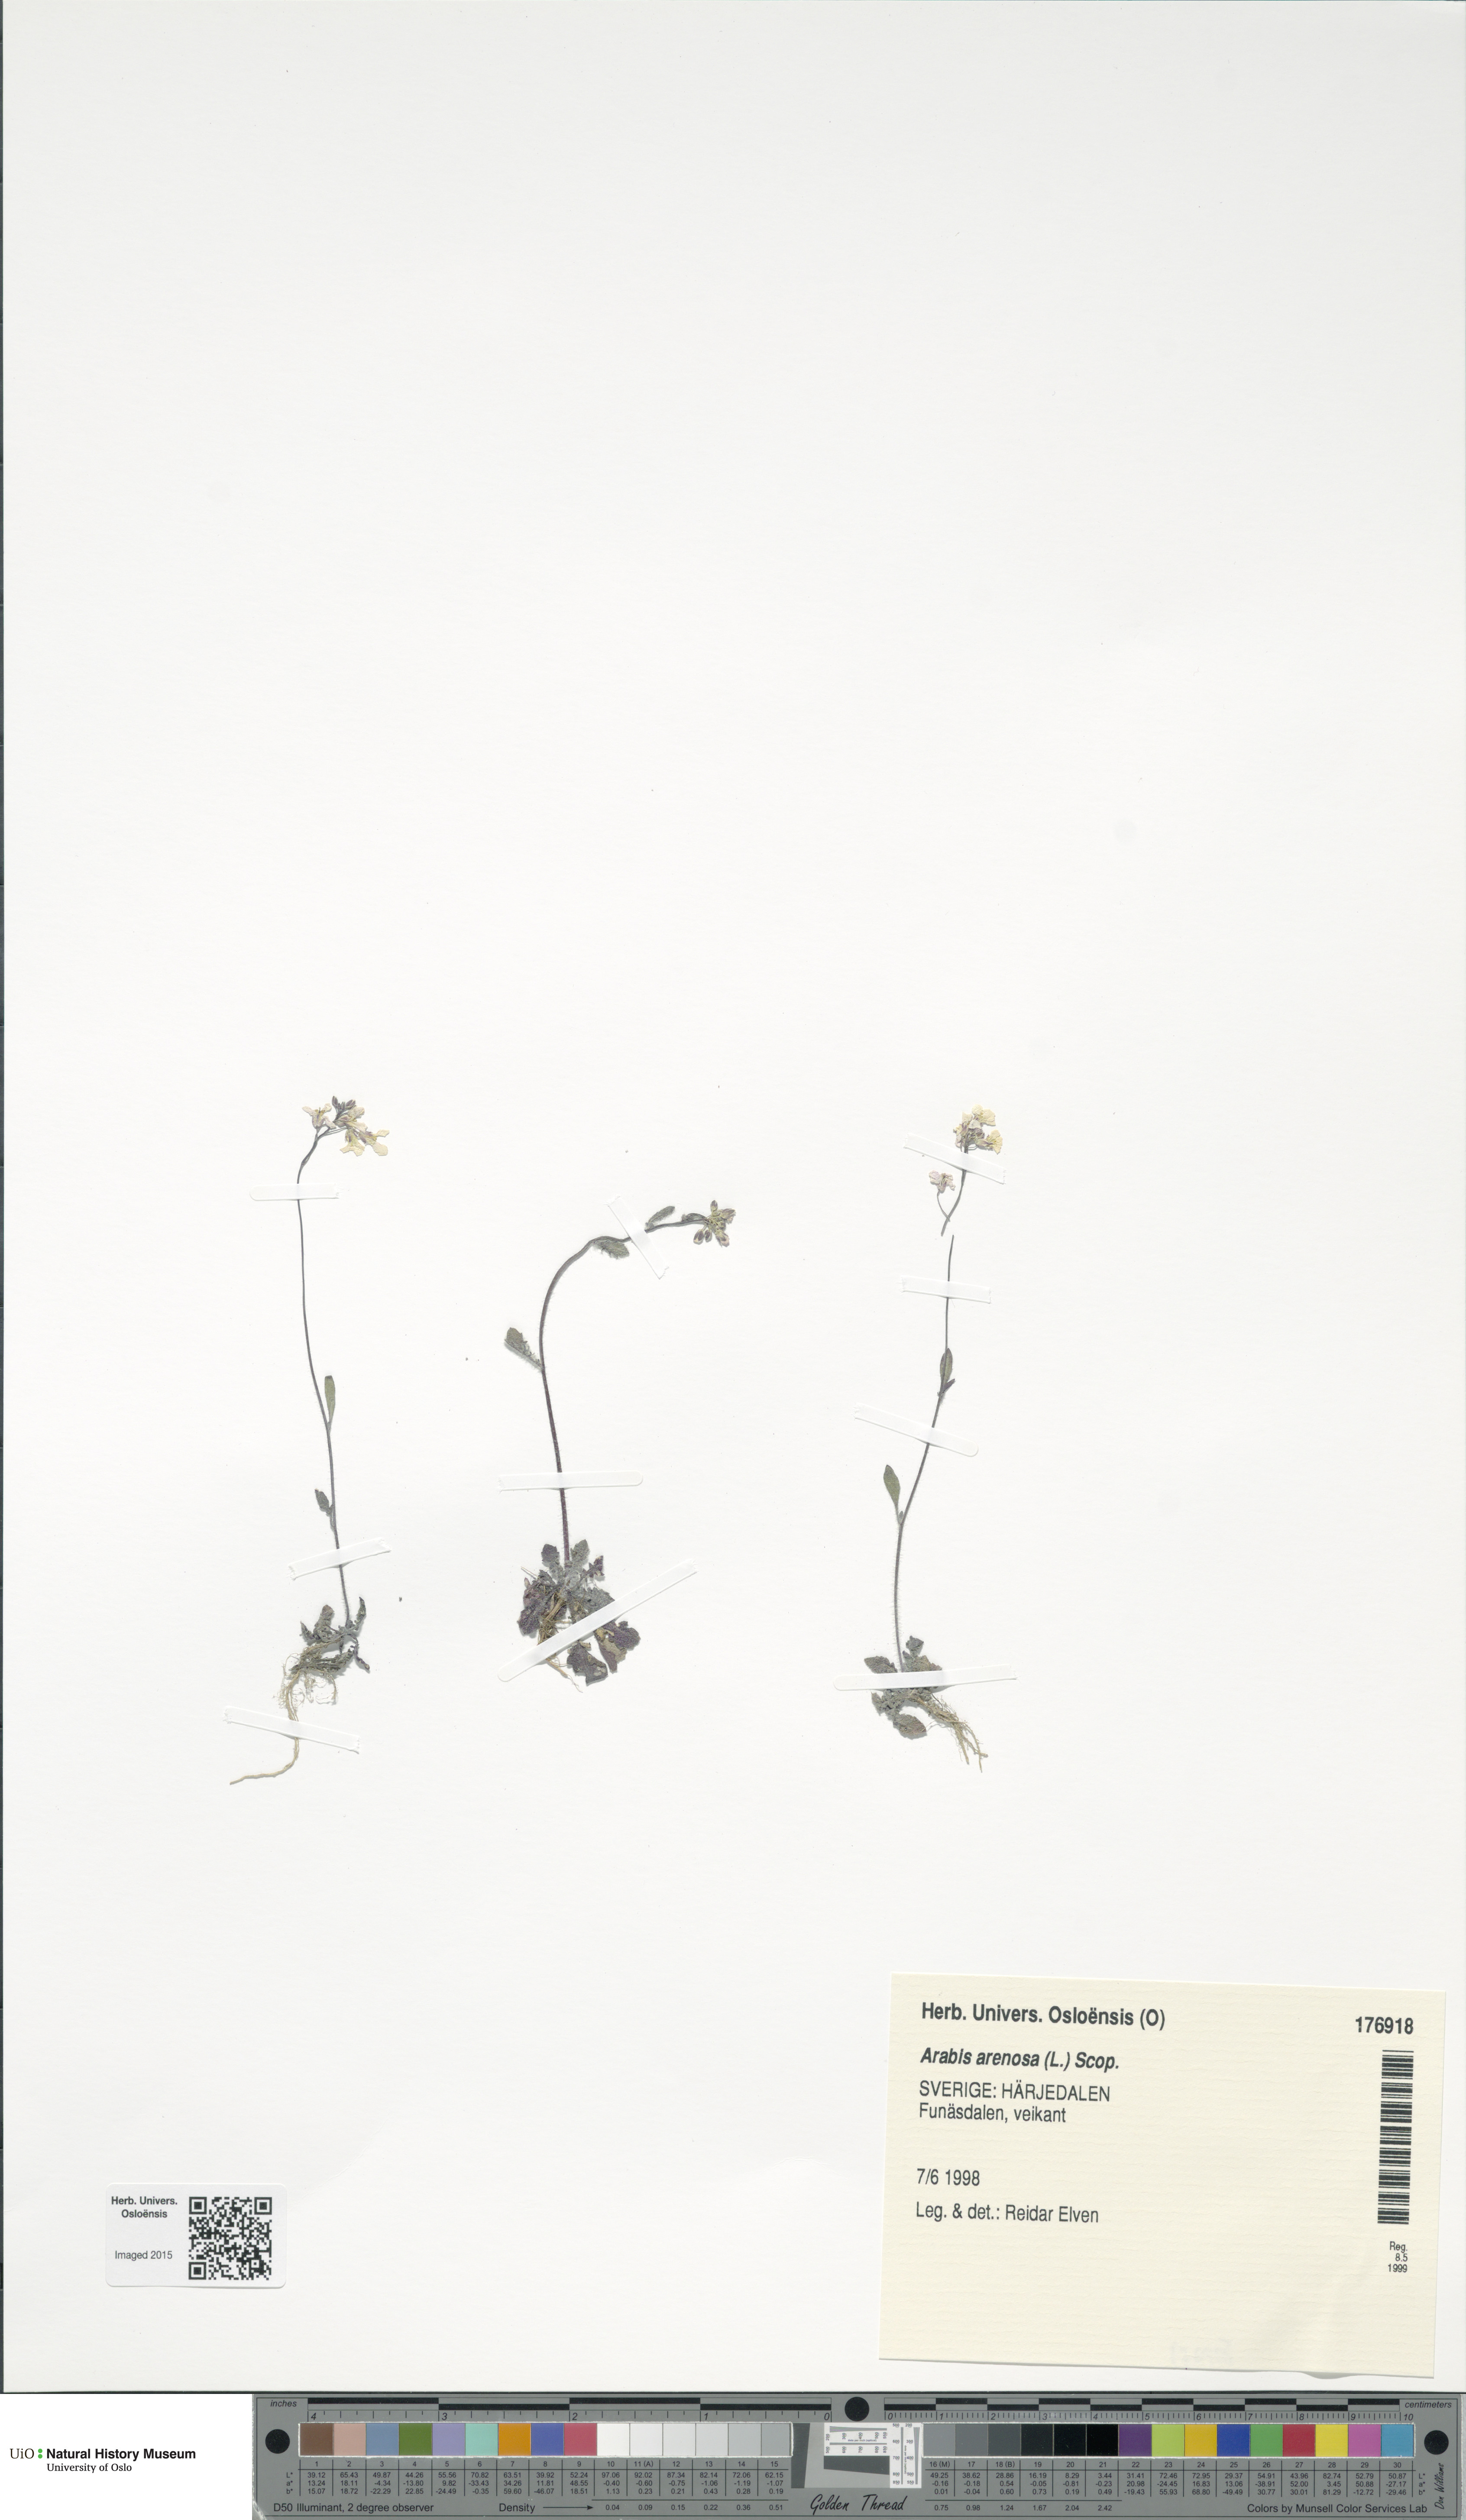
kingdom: Plantae
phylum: Tracheophyta
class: Magnoliopsida
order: Brassicales
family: Brassicaceae
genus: Arabidopsis
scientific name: Arabidopsis arenosa
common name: Sand rock-cress
